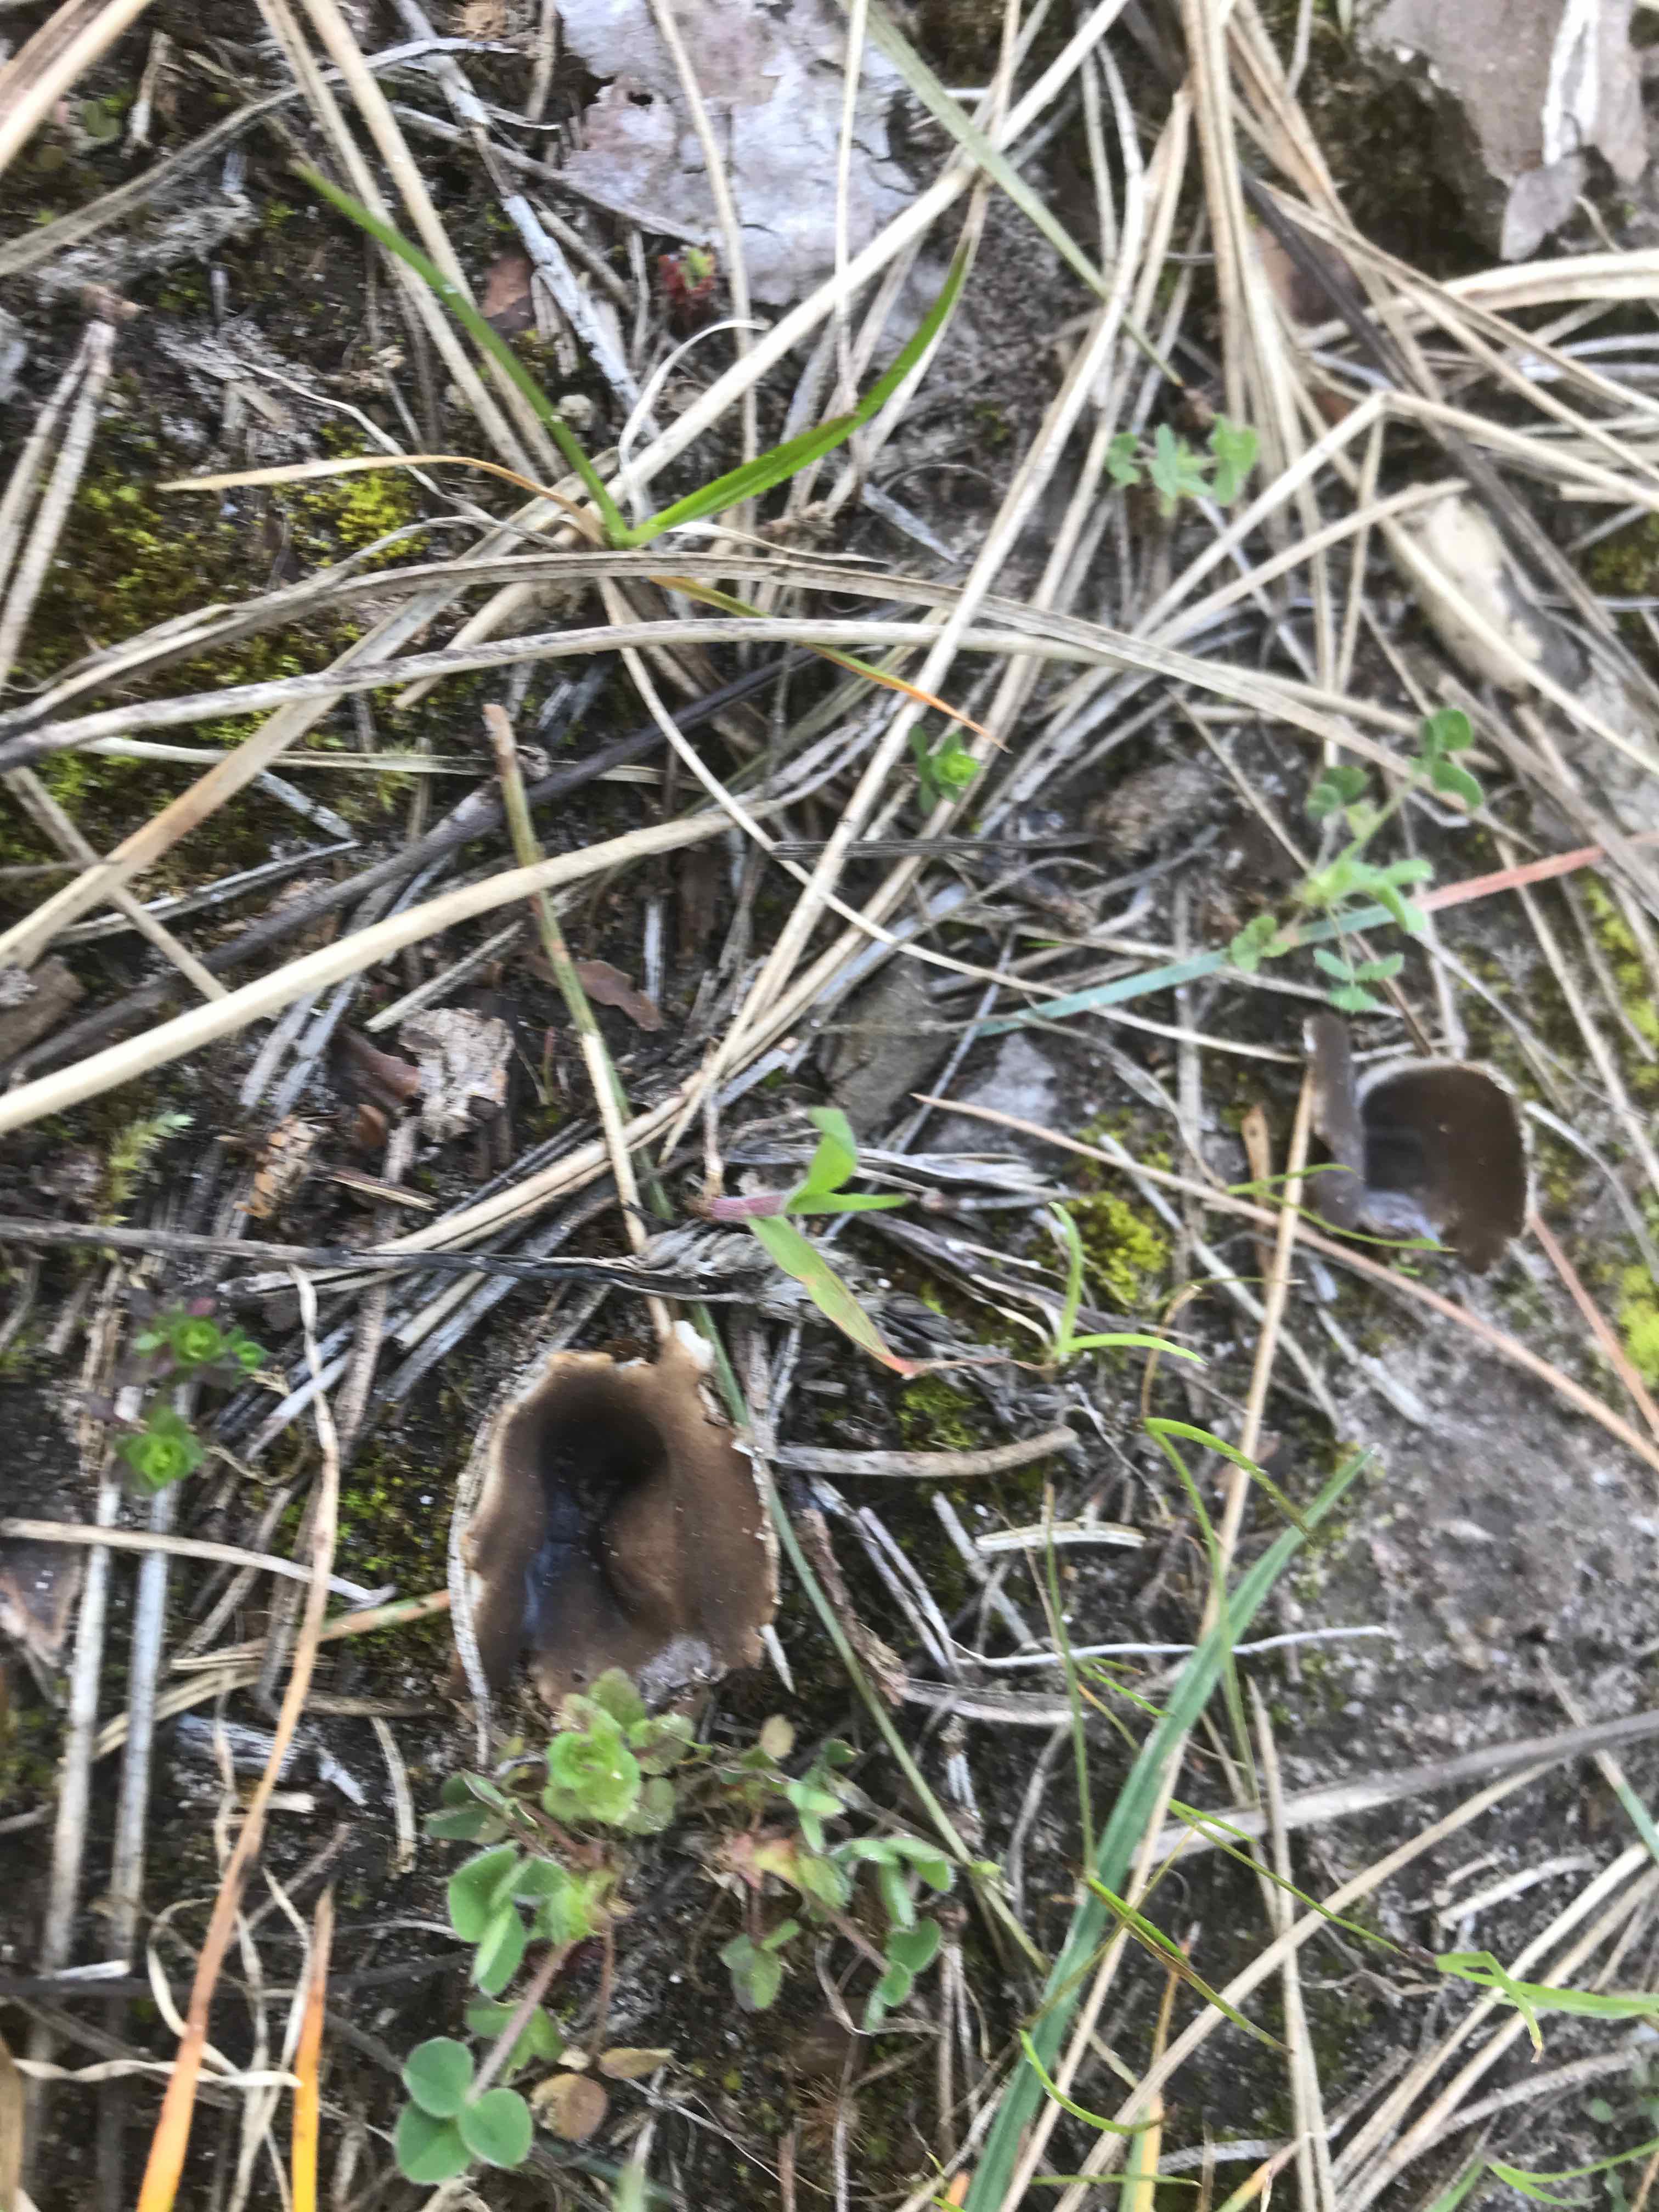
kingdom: Fungi
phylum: Ascomycota
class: Pezizomycetes
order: Pezizales
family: Helvellaceae
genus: Dissingia
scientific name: Dissingia leucomelaena
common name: sorthvid foldhat
